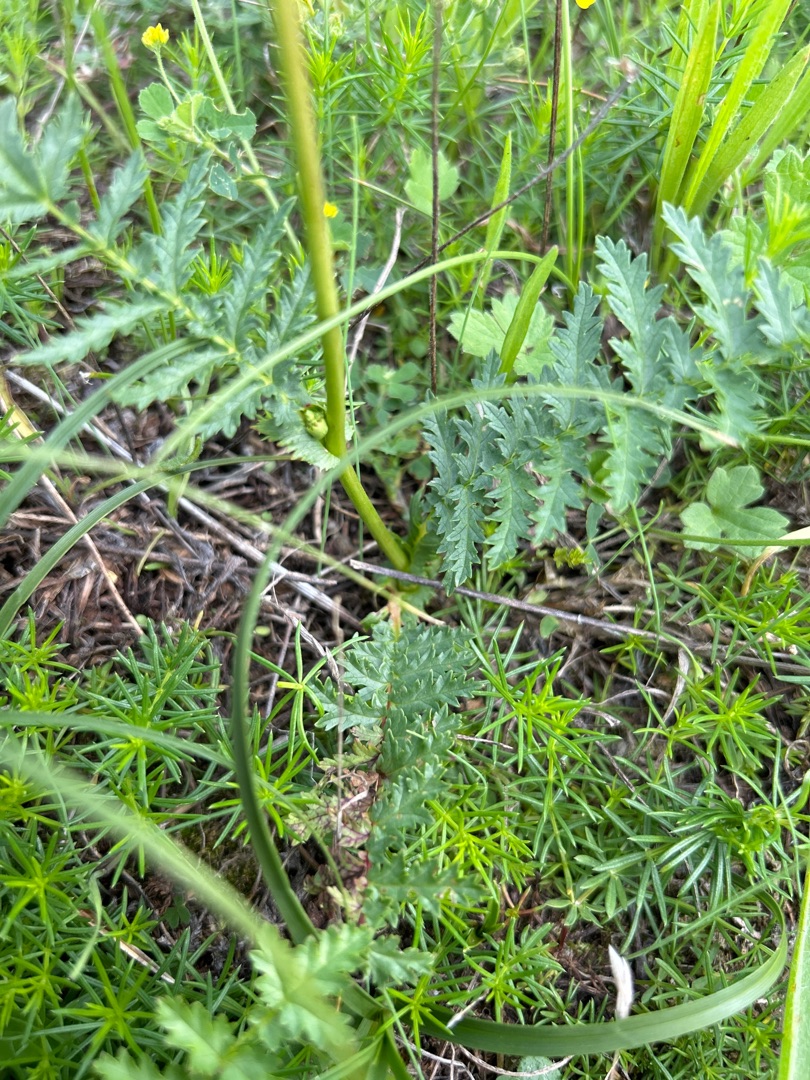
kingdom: Plantae
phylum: Tracheophyta
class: Magnoliopsida
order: Rosales
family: Rosaceae
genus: Filipendula
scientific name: Filipendula vulgaris
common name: Knoldet mjødurt
